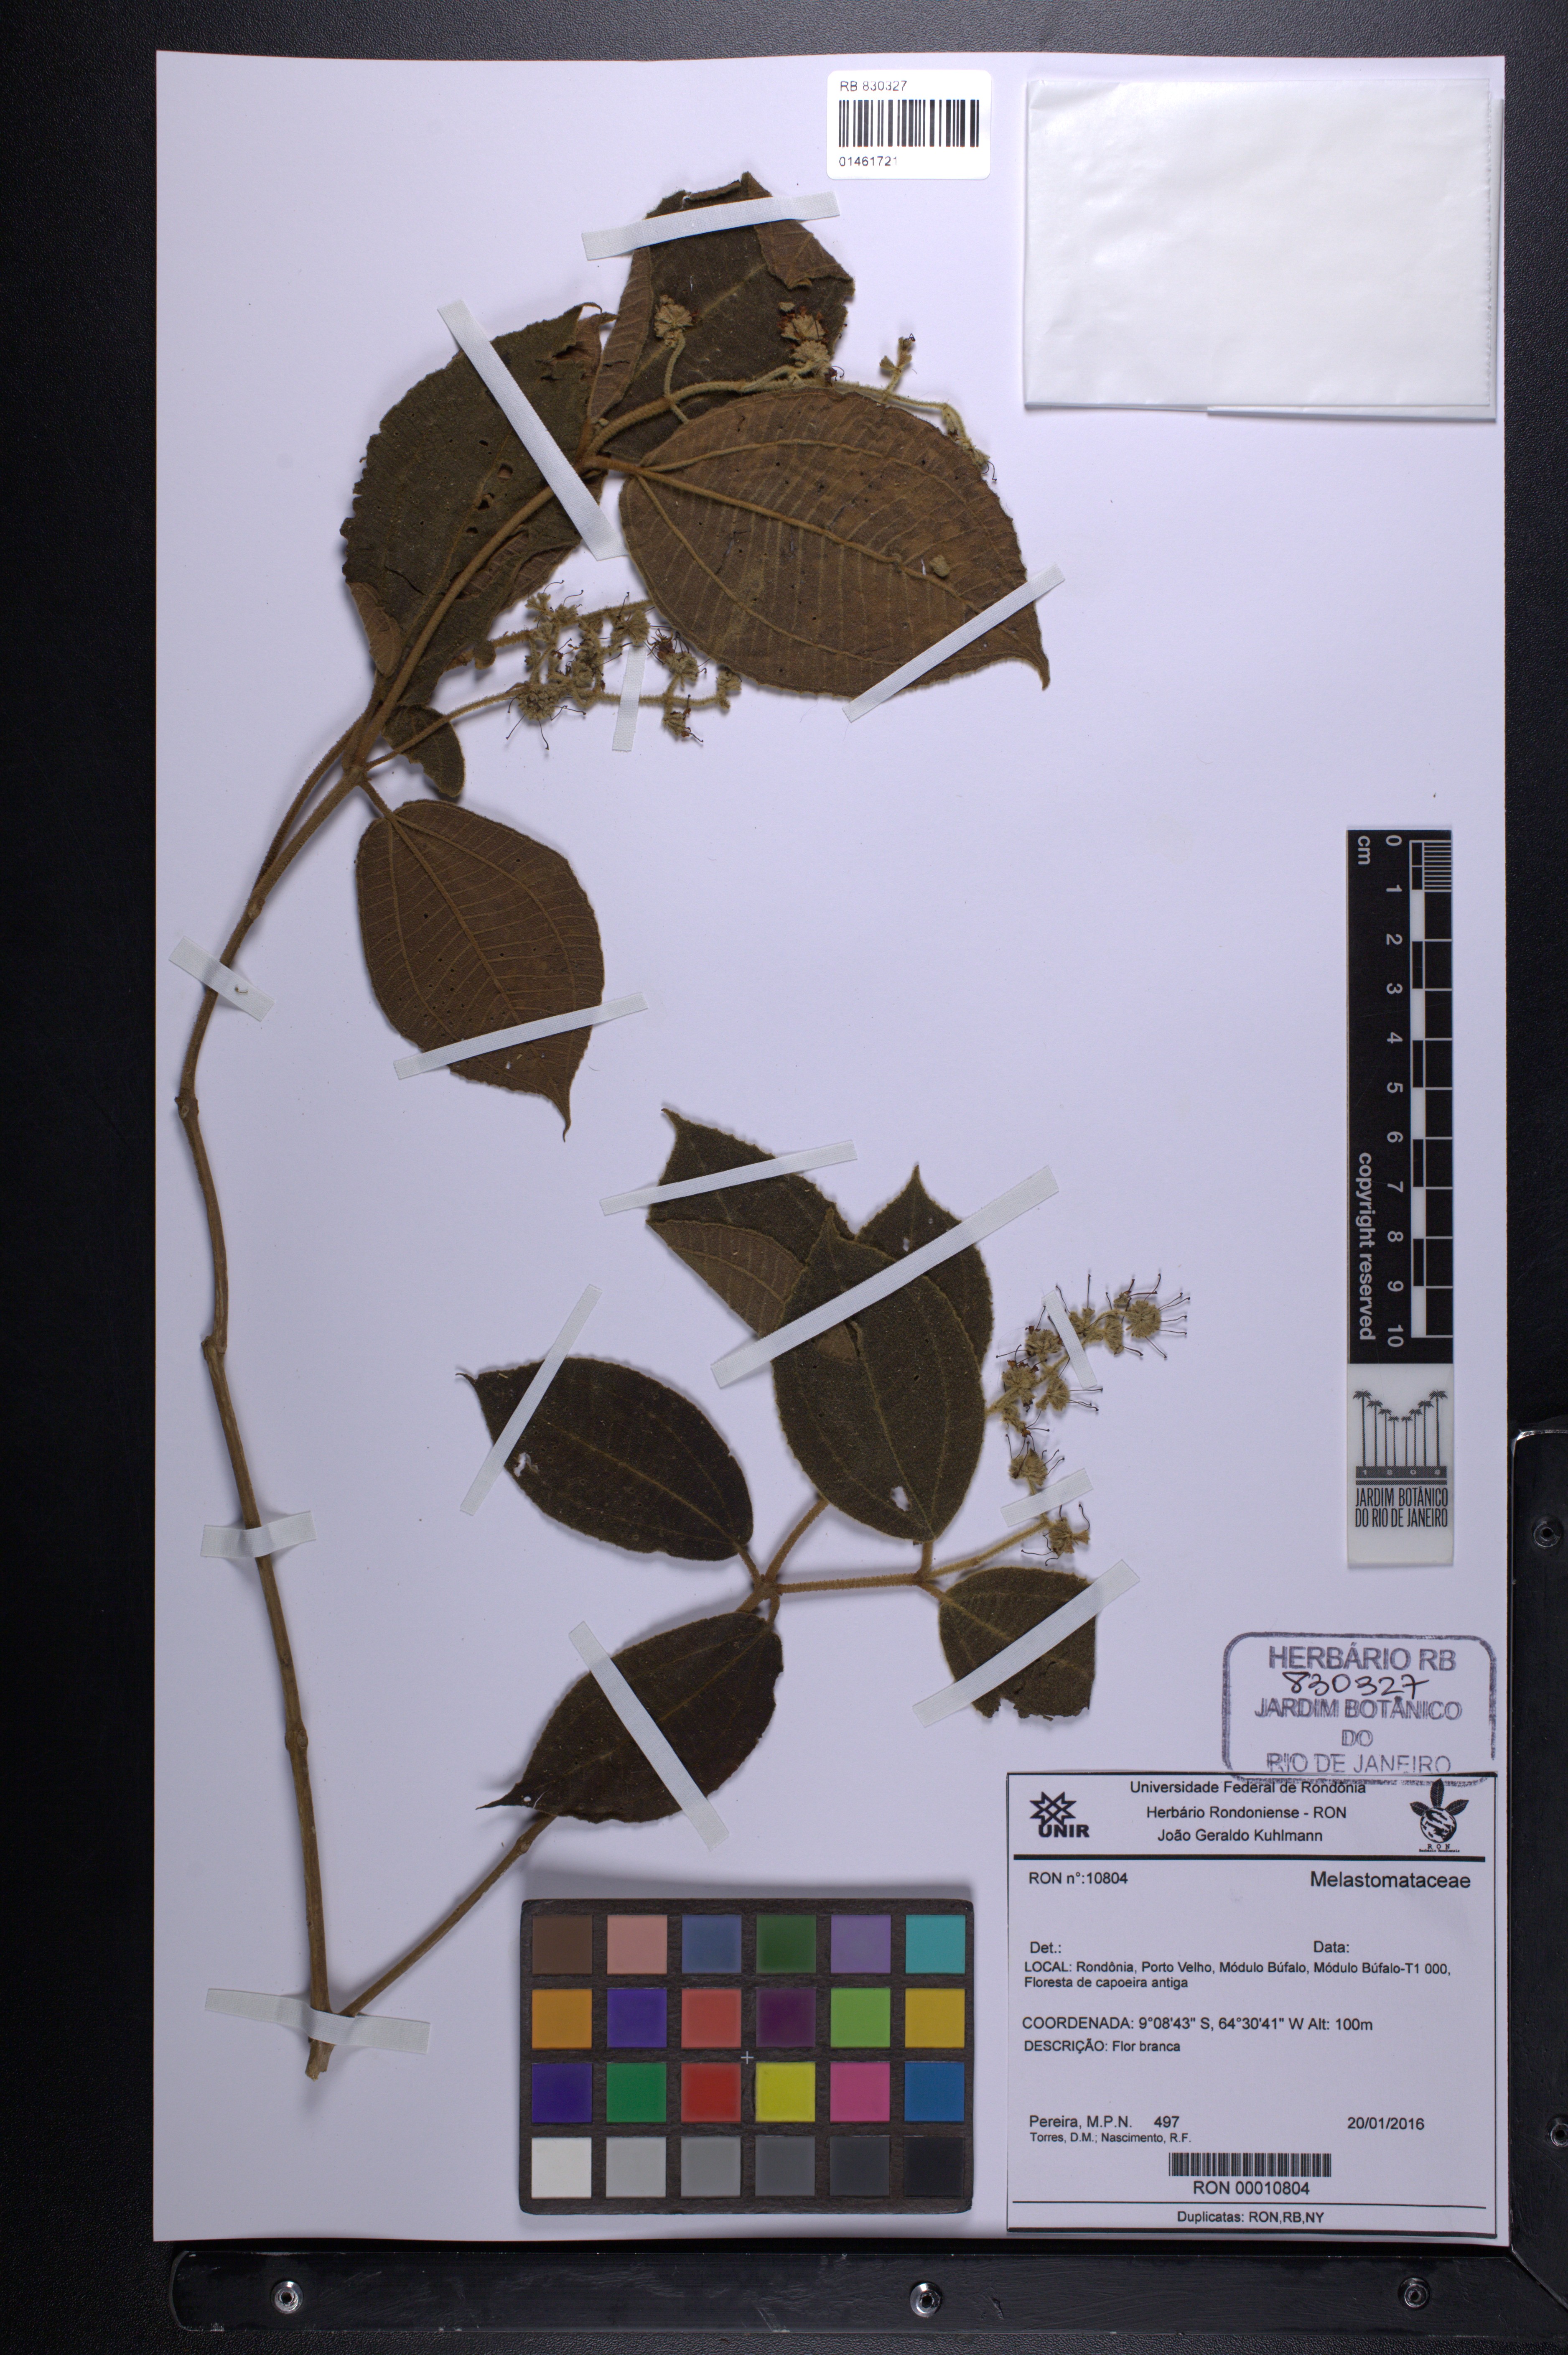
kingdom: Plantae
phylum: Tracheophyta
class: Magnoliopsida
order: Myrtales
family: Melastomataceae
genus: Miconia
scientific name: Miconia lanata
